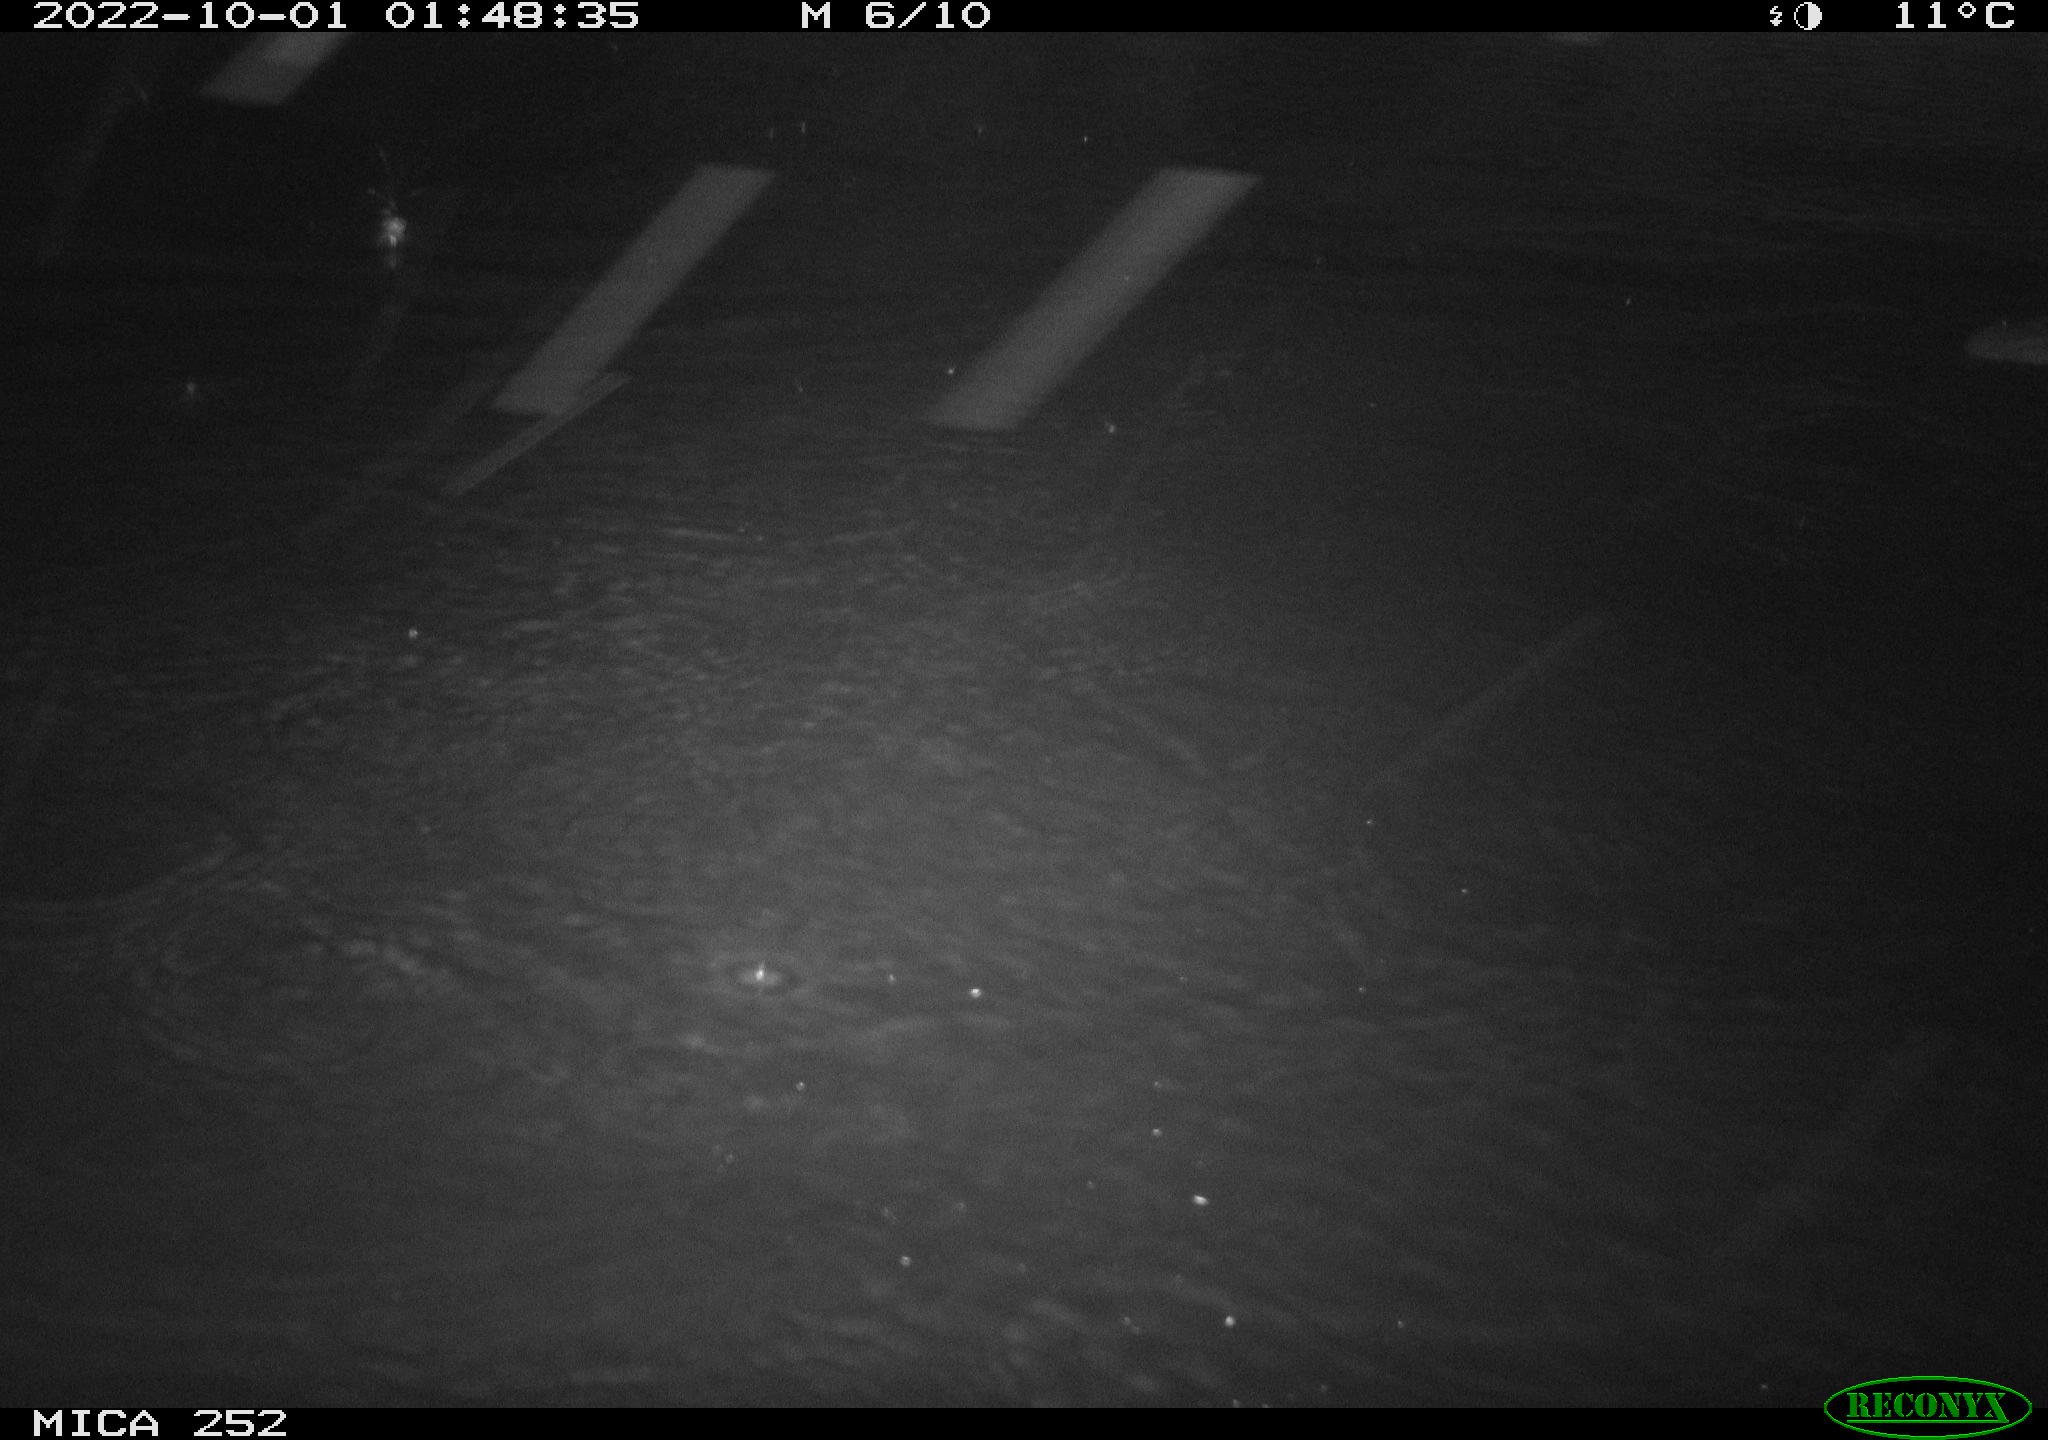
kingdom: Animalia
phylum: Chordata
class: Mammalia
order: Rodentia
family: Castoridae
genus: Castor
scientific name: Castor fiber
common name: Eurasian beaver
